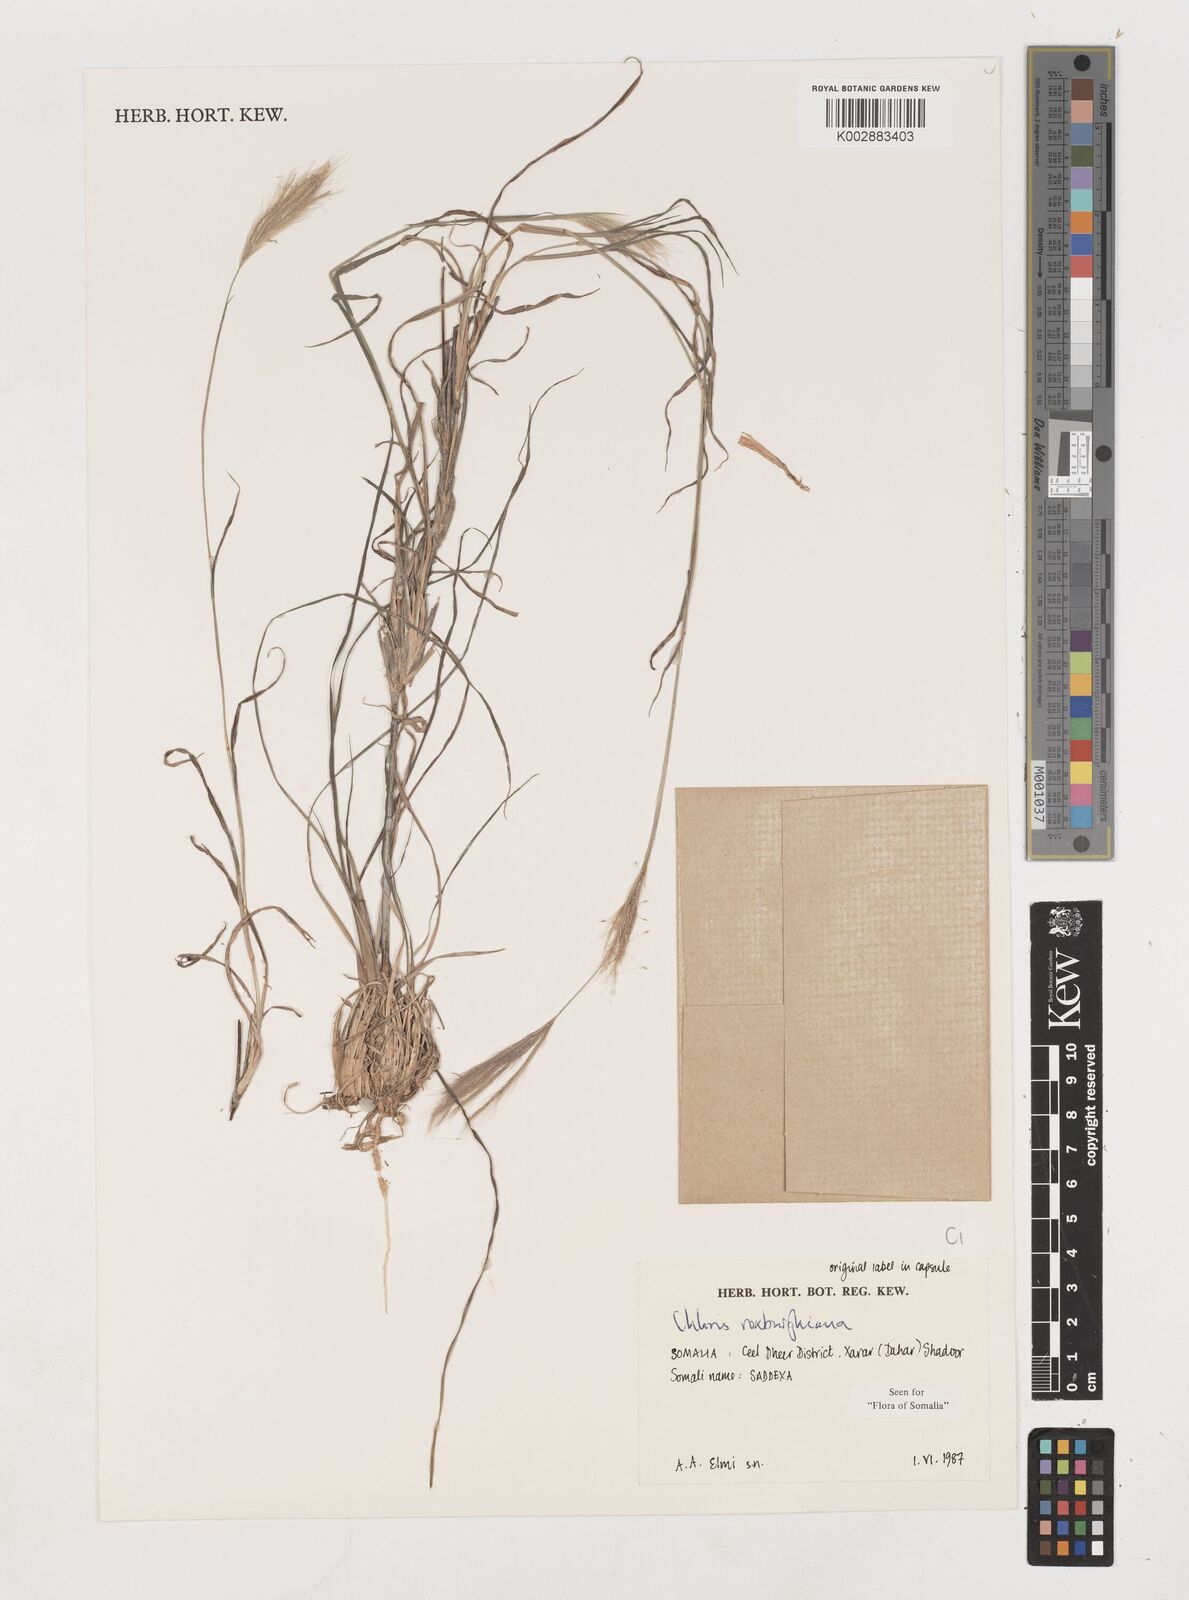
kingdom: Plantae
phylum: Tracheophyta
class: Liliopsida
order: Poales
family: Poaceae
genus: Tetrapogon
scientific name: Tetrapogon roxburghiana
